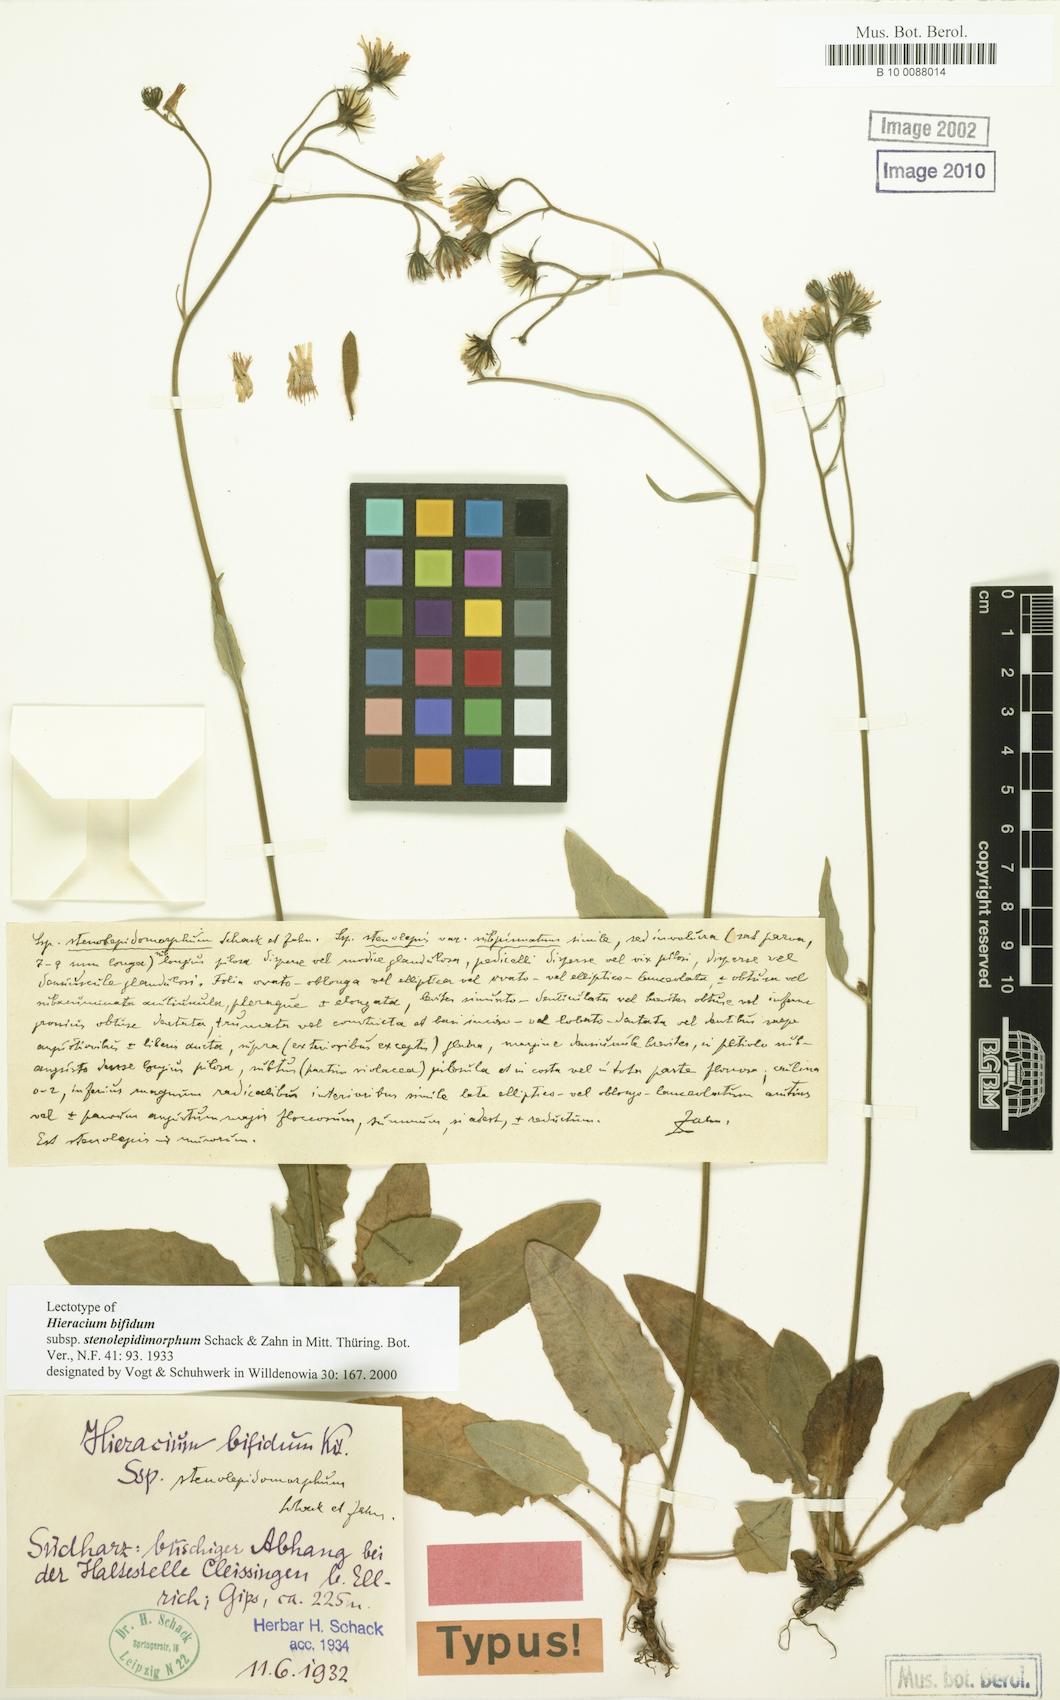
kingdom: Plantae
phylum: Tracheophyta
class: Magnoliopsida
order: Asterales
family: Asteraceae
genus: Hieracium
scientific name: Hieracium bifidum
